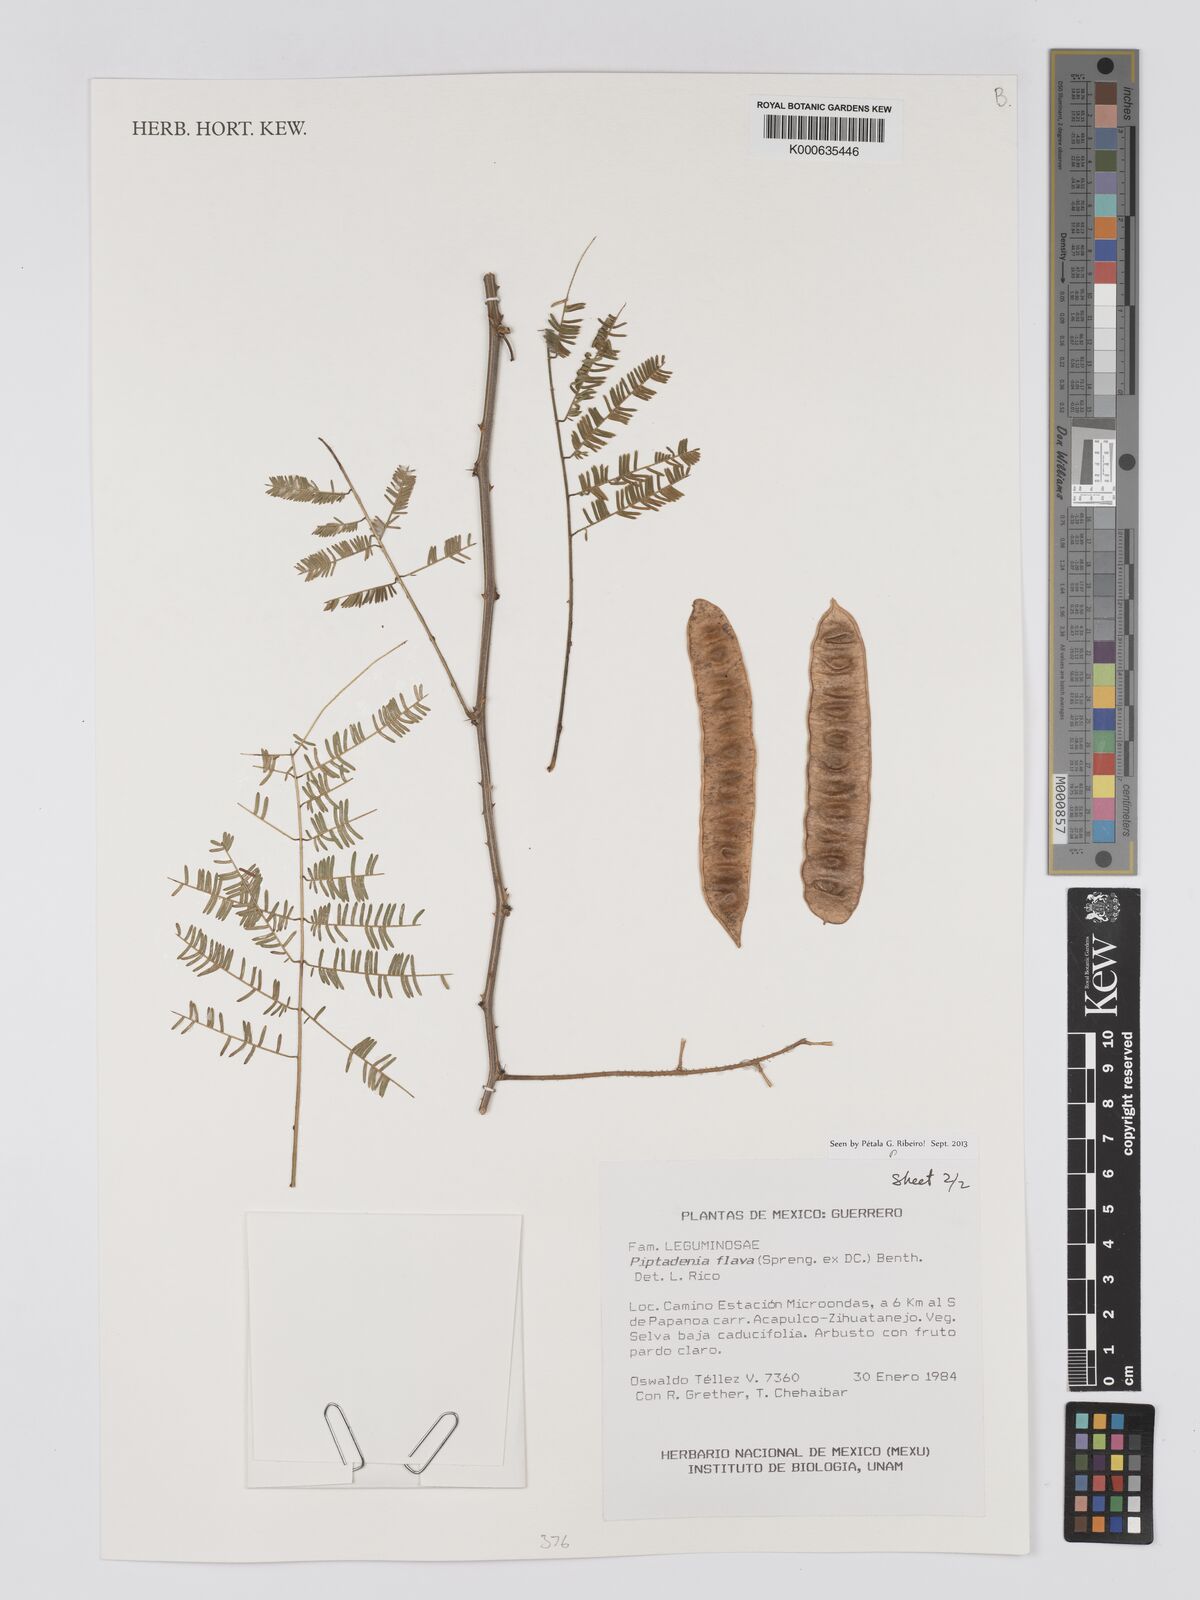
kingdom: Plantae
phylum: Tracheophyta
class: Magnoliopsida
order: Fabales
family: Fabaceae
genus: Piptadenia
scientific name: Piptadenia retusa
